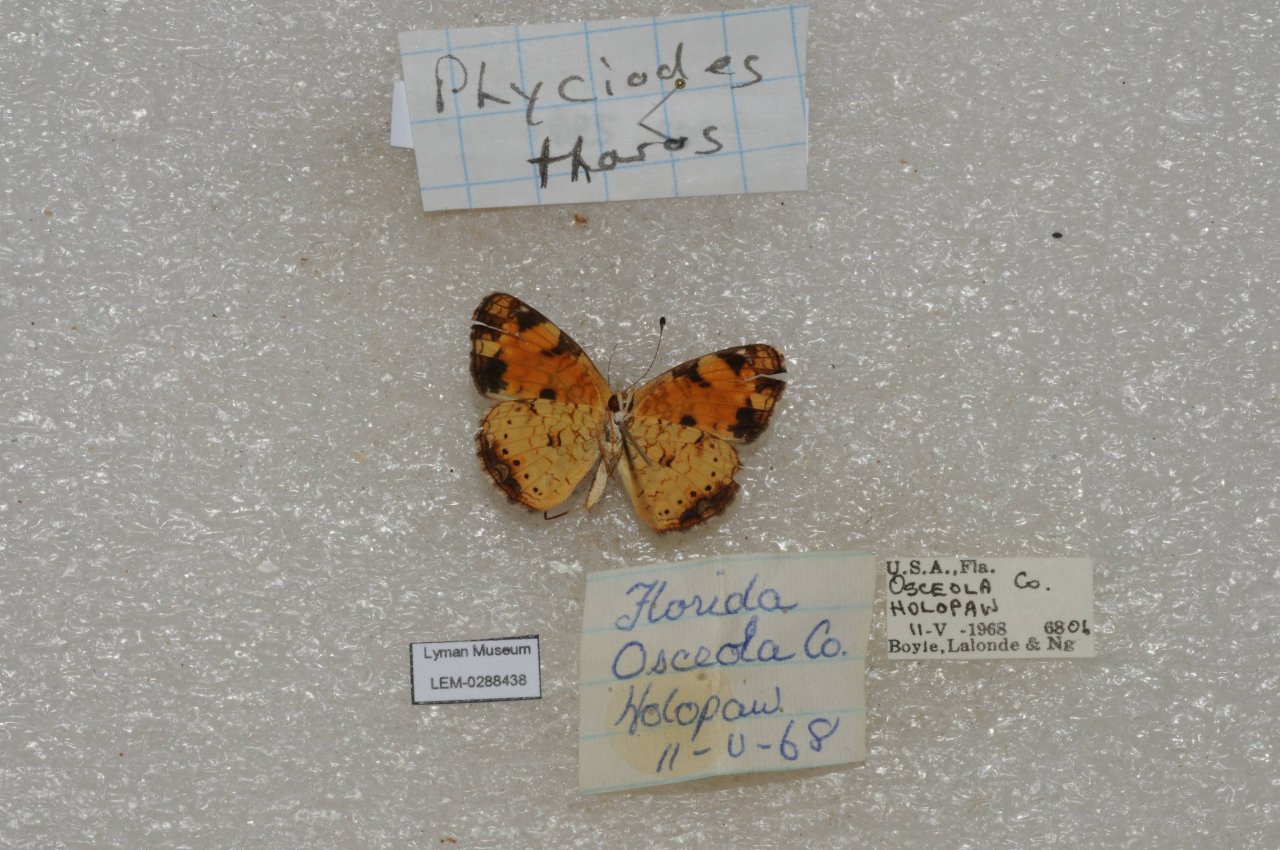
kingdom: Animalia
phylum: Arthropoda
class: Insecta
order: Lepidoptera
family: Nymphalidae
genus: Phyciodes
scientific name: Phyciodes tharos
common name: Pearl Crescent
